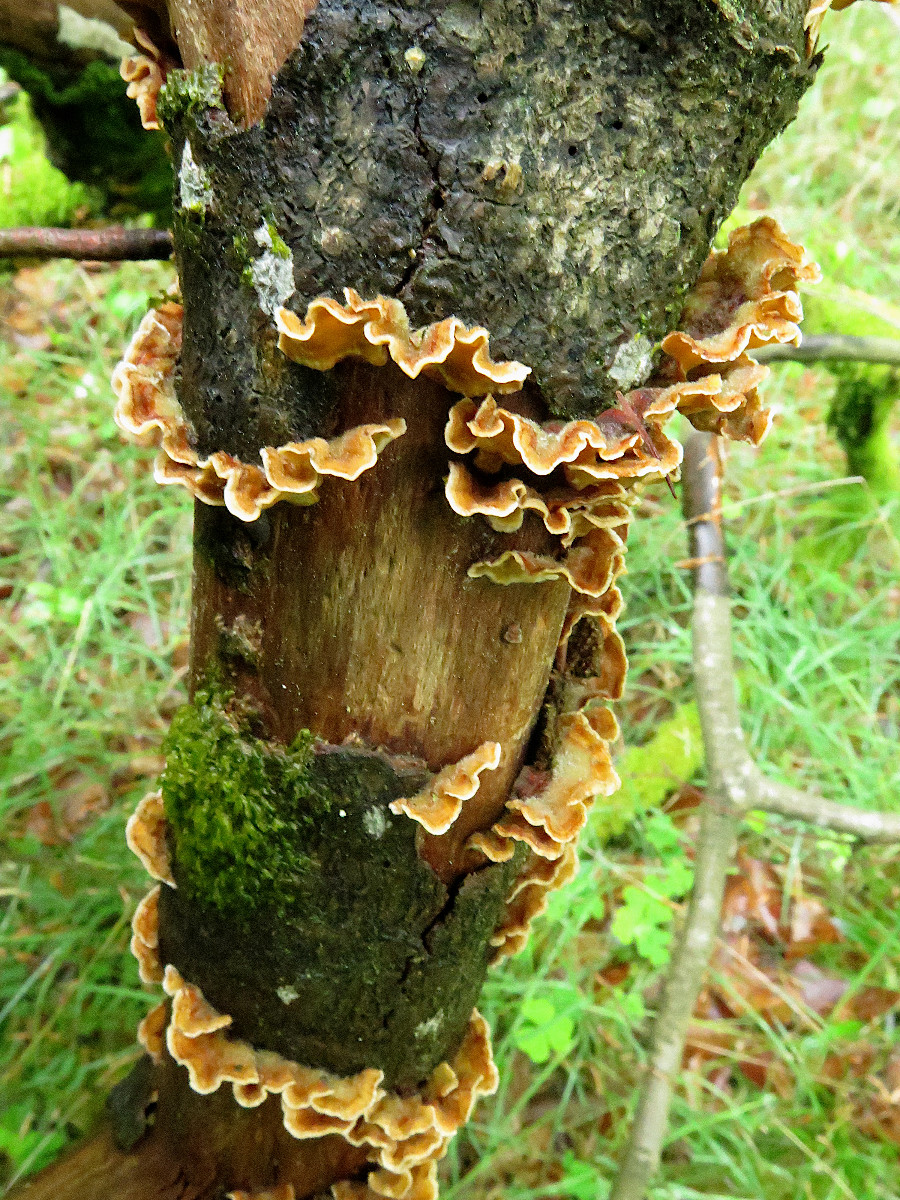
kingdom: Fungi
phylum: Basidiomycota
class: Agaricomycetes
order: Russulales
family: Stereaceae
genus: Stereum
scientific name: Stereum hirsutum
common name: håret lædersvamp
